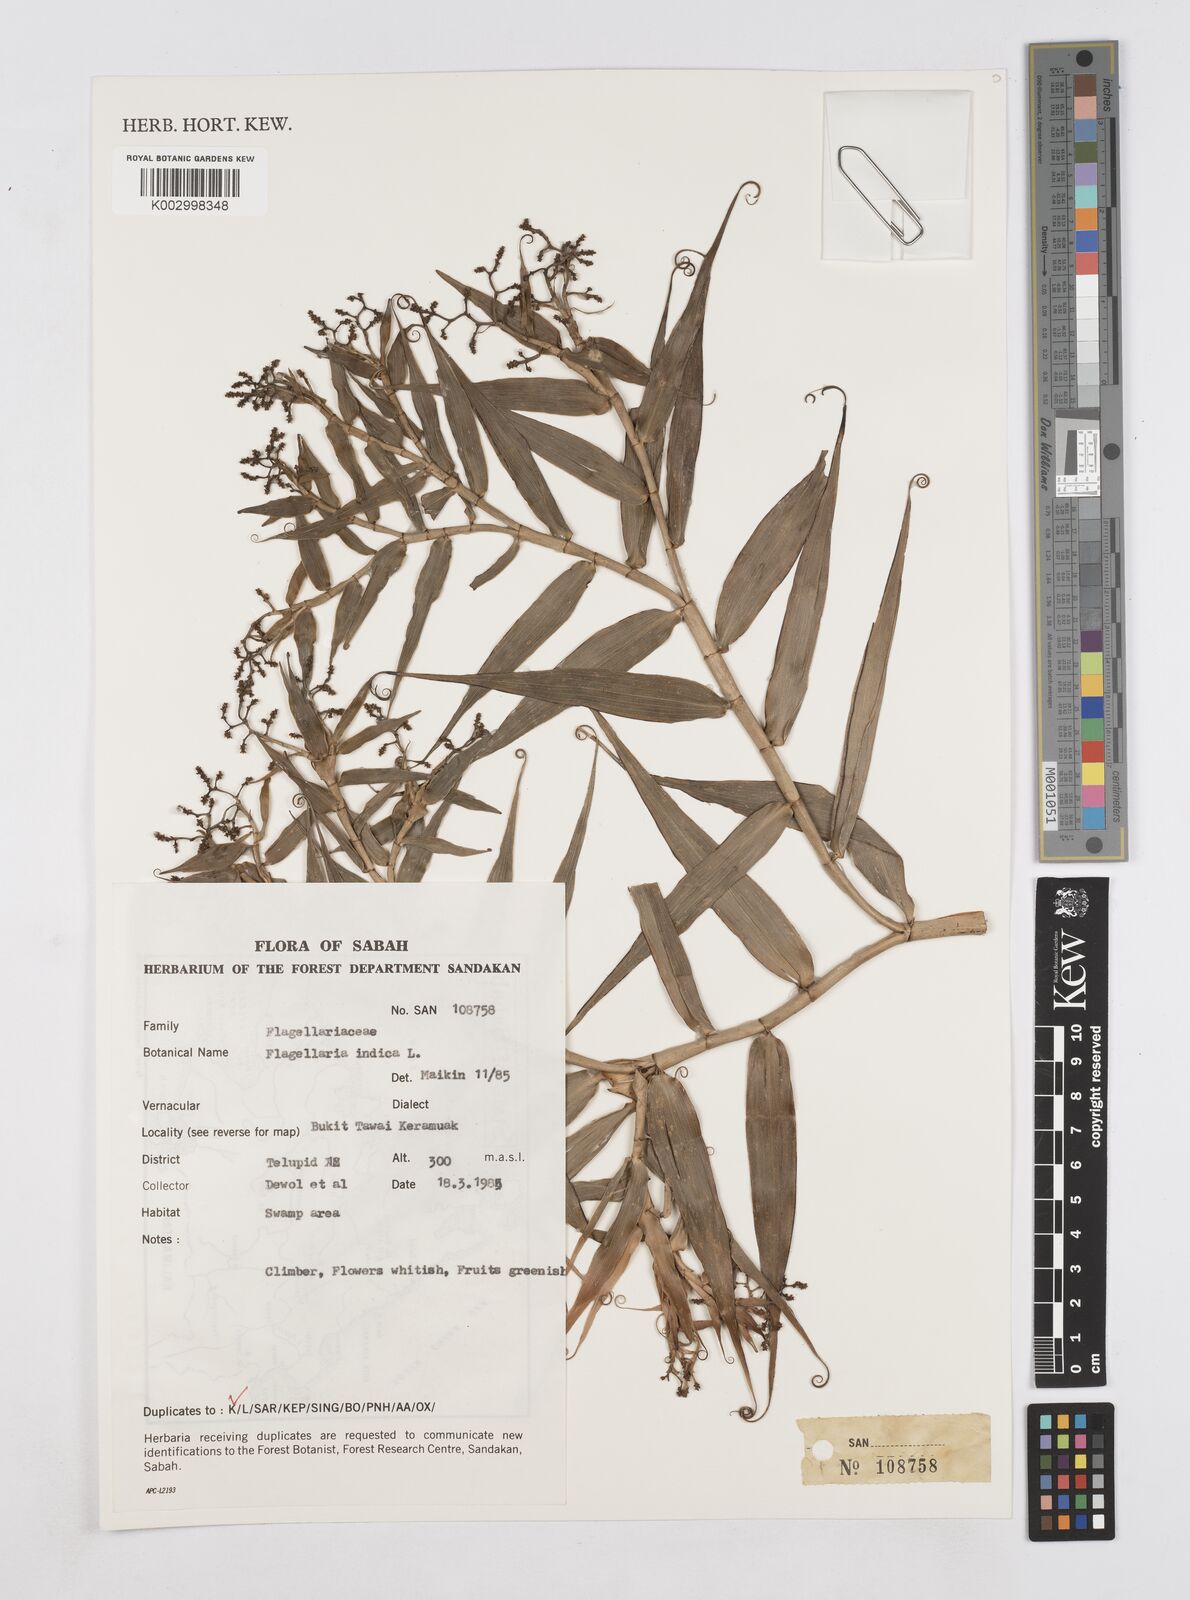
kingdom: Plantae
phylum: Tracheophyta
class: Liliopsida
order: Poales
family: Flagellariaceae
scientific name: Flagellariaceae
